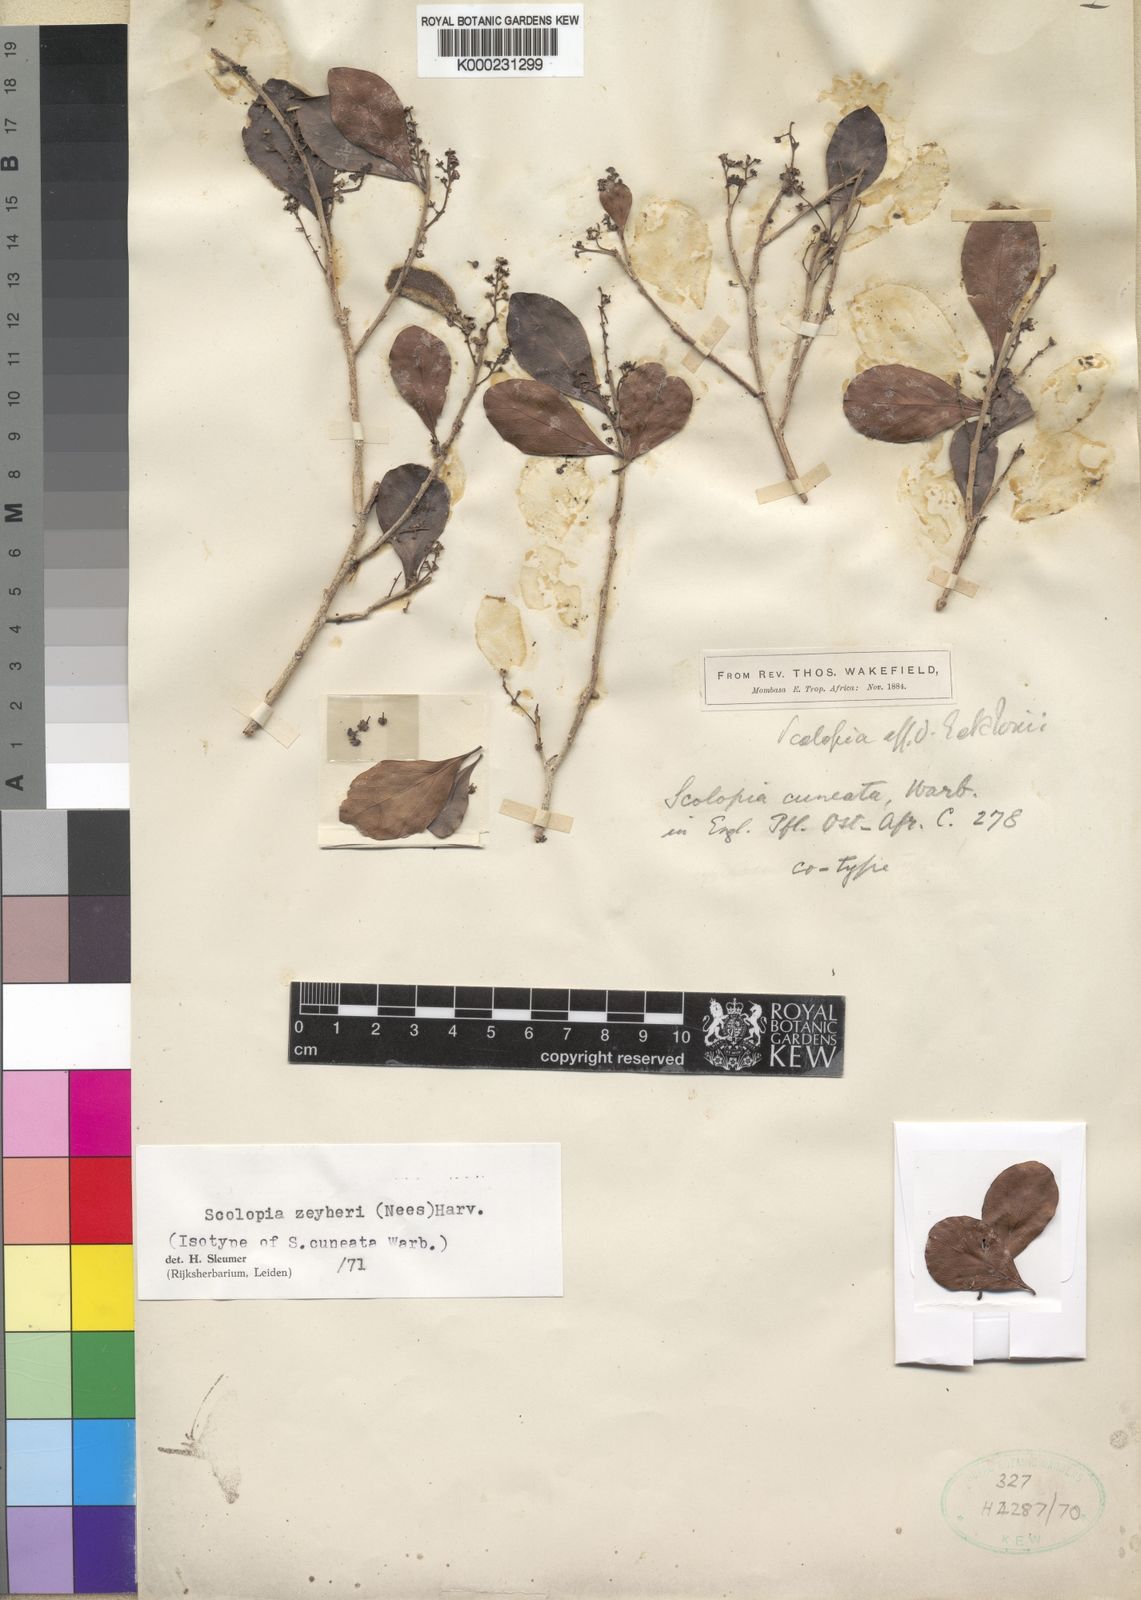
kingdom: Plantae
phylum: Tracheophyta
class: Magnoliopsida
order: Malpighiales
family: Salicaceae
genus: Scolopia
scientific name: Scolopia
